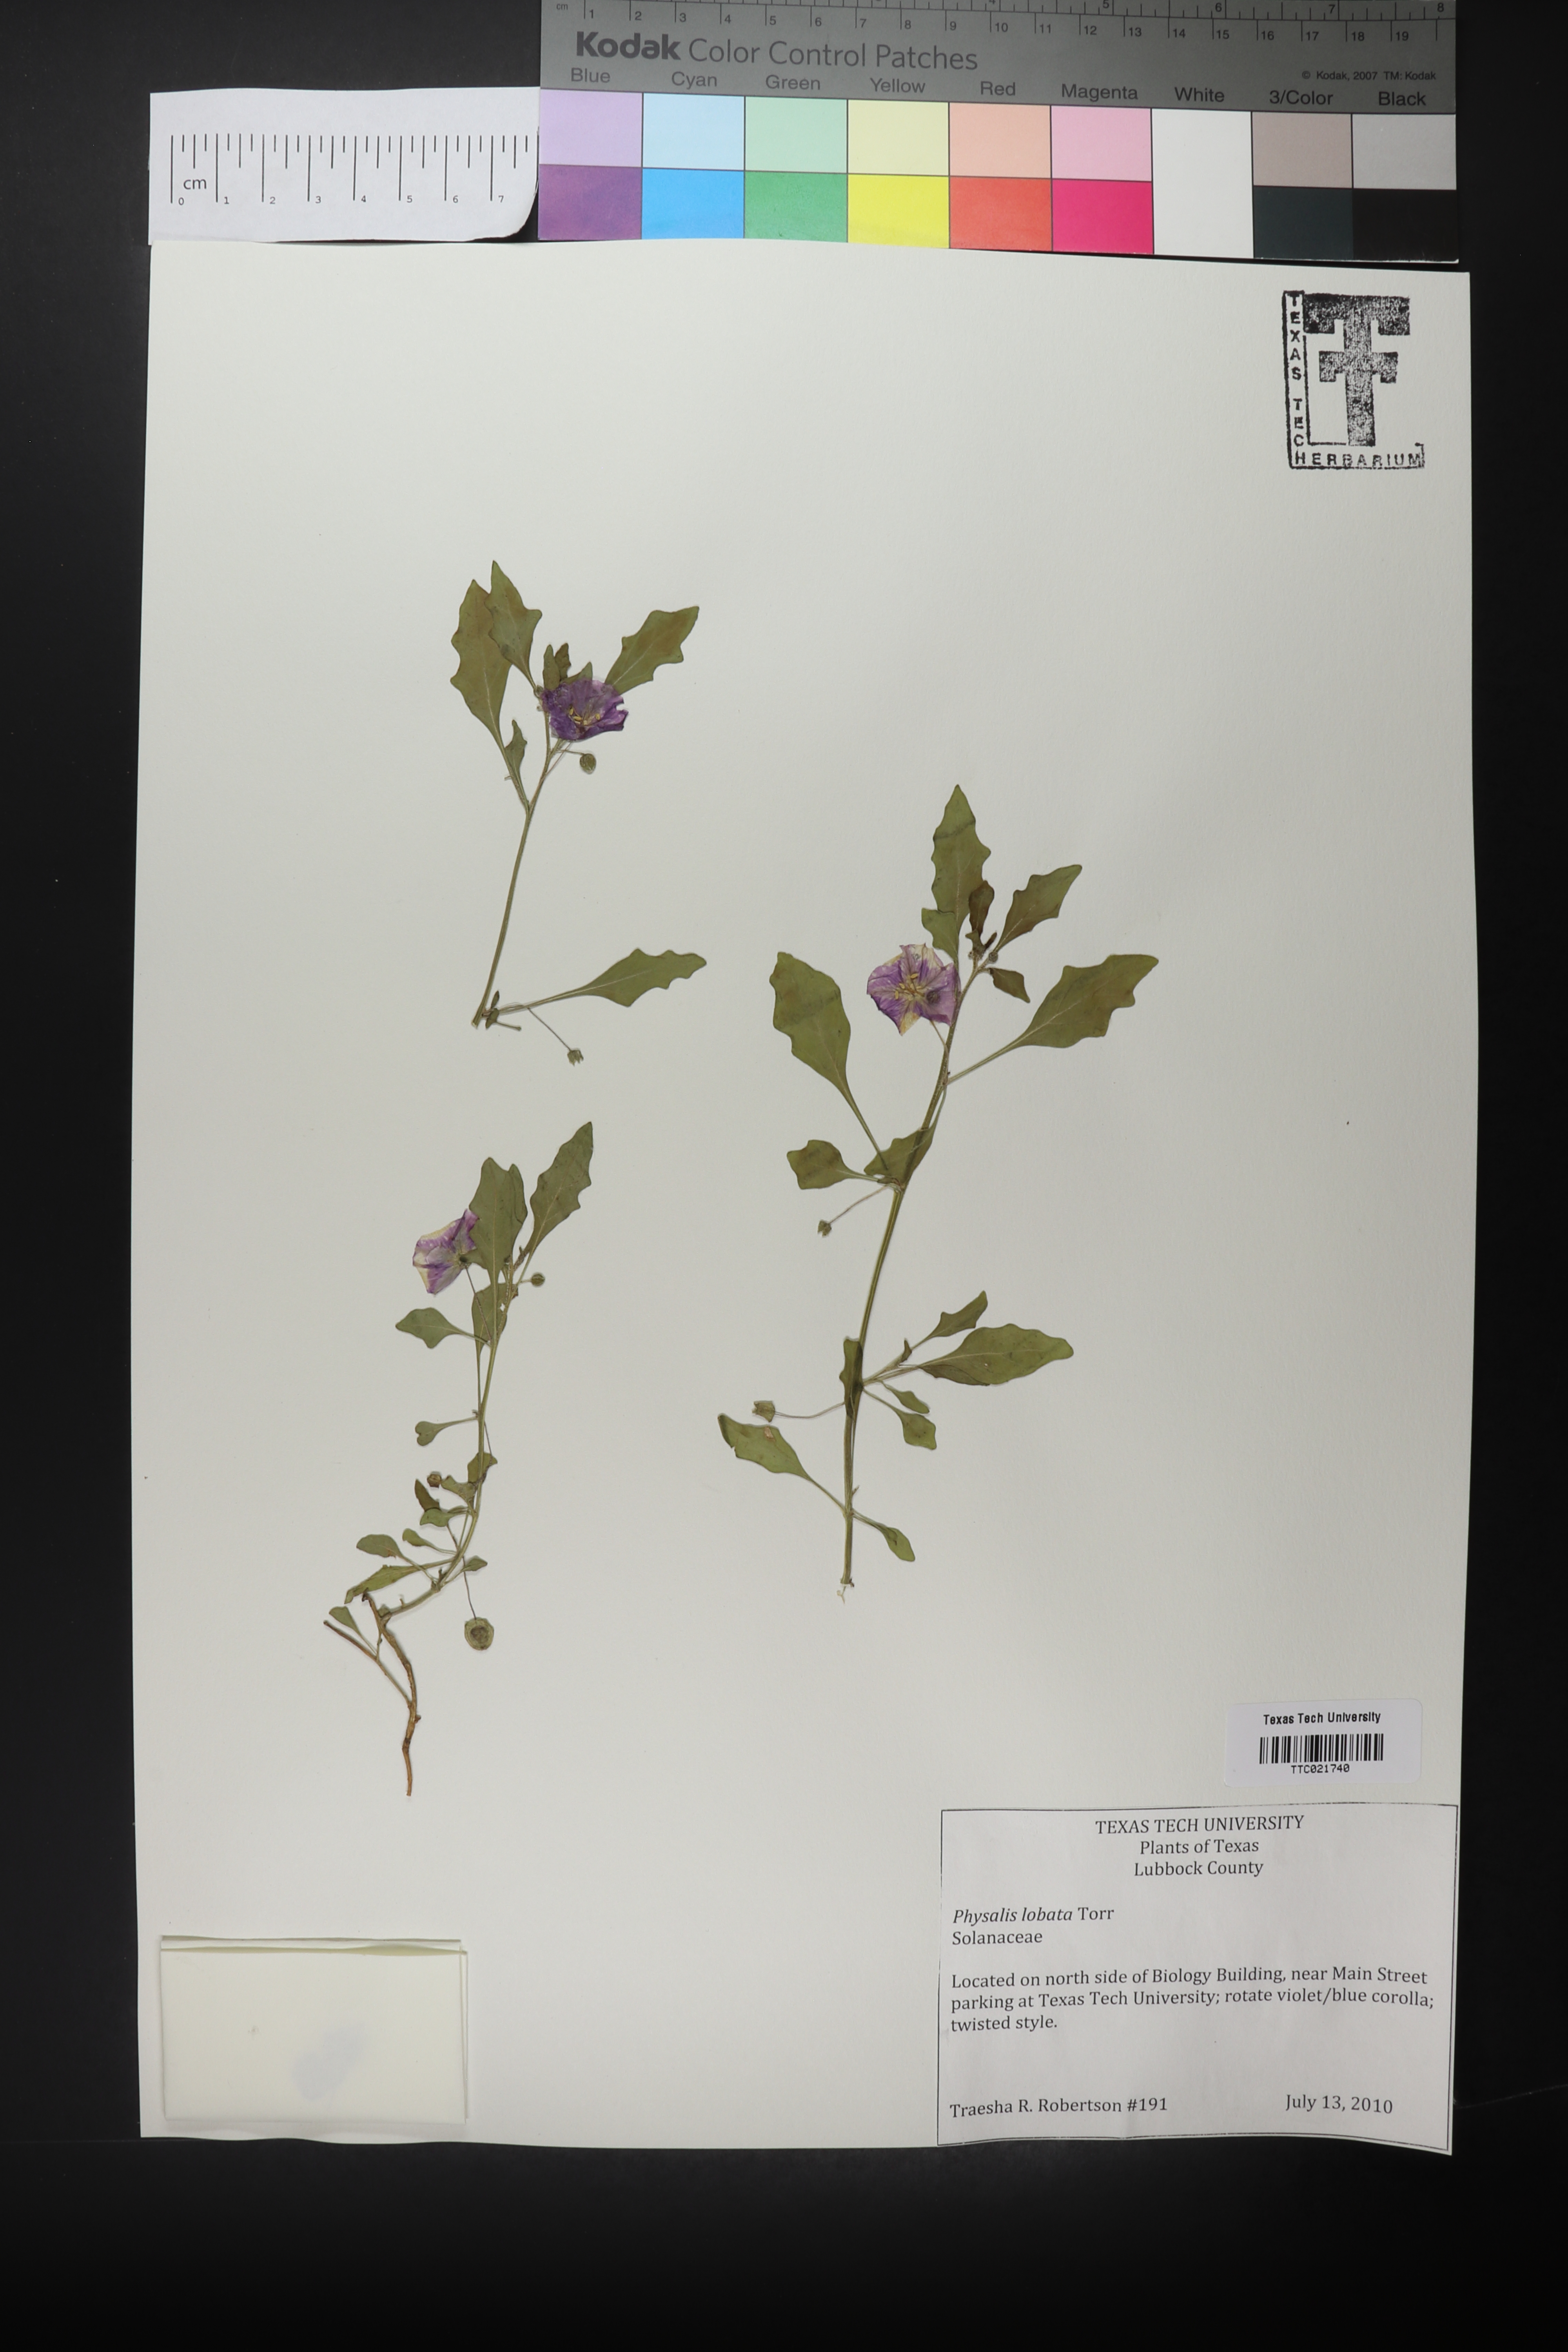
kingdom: Plantae
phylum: Tracheophyta
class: Magnoliopsida
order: Solanales
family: Solanaceae
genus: Quincula
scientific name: Quincula lobata
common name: Purple-ground-cherry
